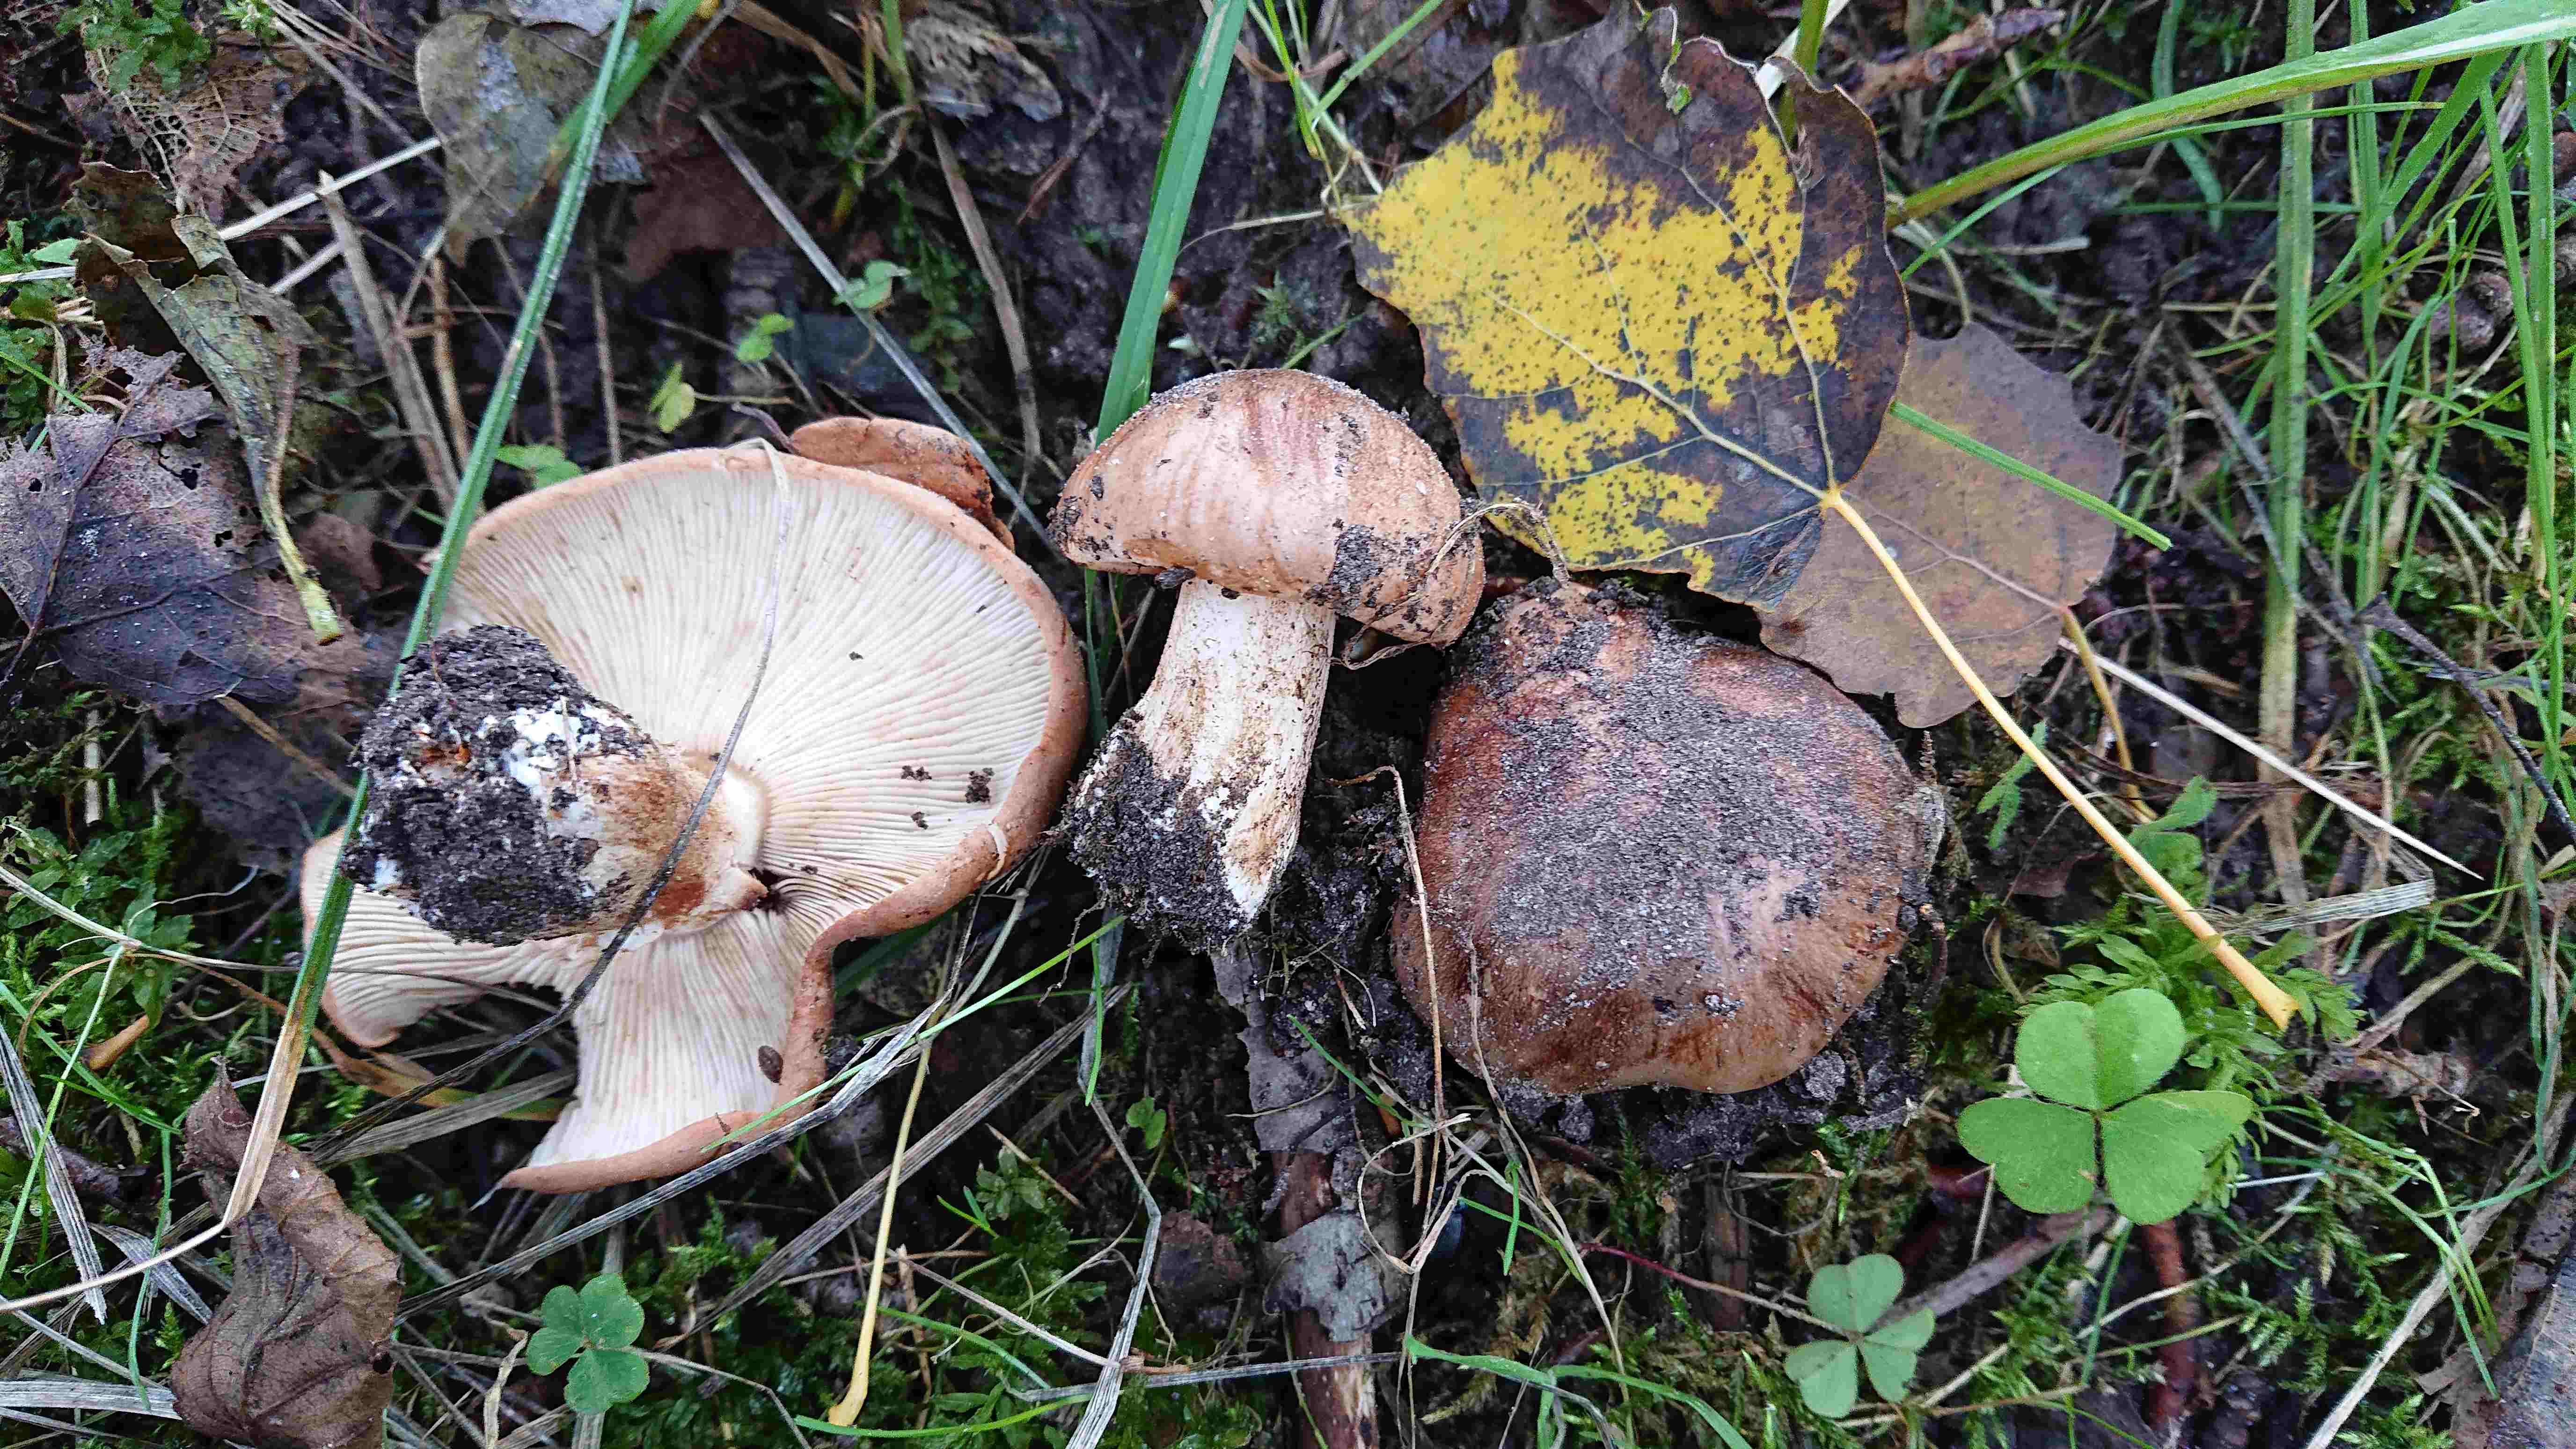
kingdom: Fungi
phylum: Basidiomycota
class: Agaricomycetes
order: Agaricales
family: Tricholomataceae
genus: Tricholoma
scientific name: Tricholoma populinum
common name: poppel-ridderhat
